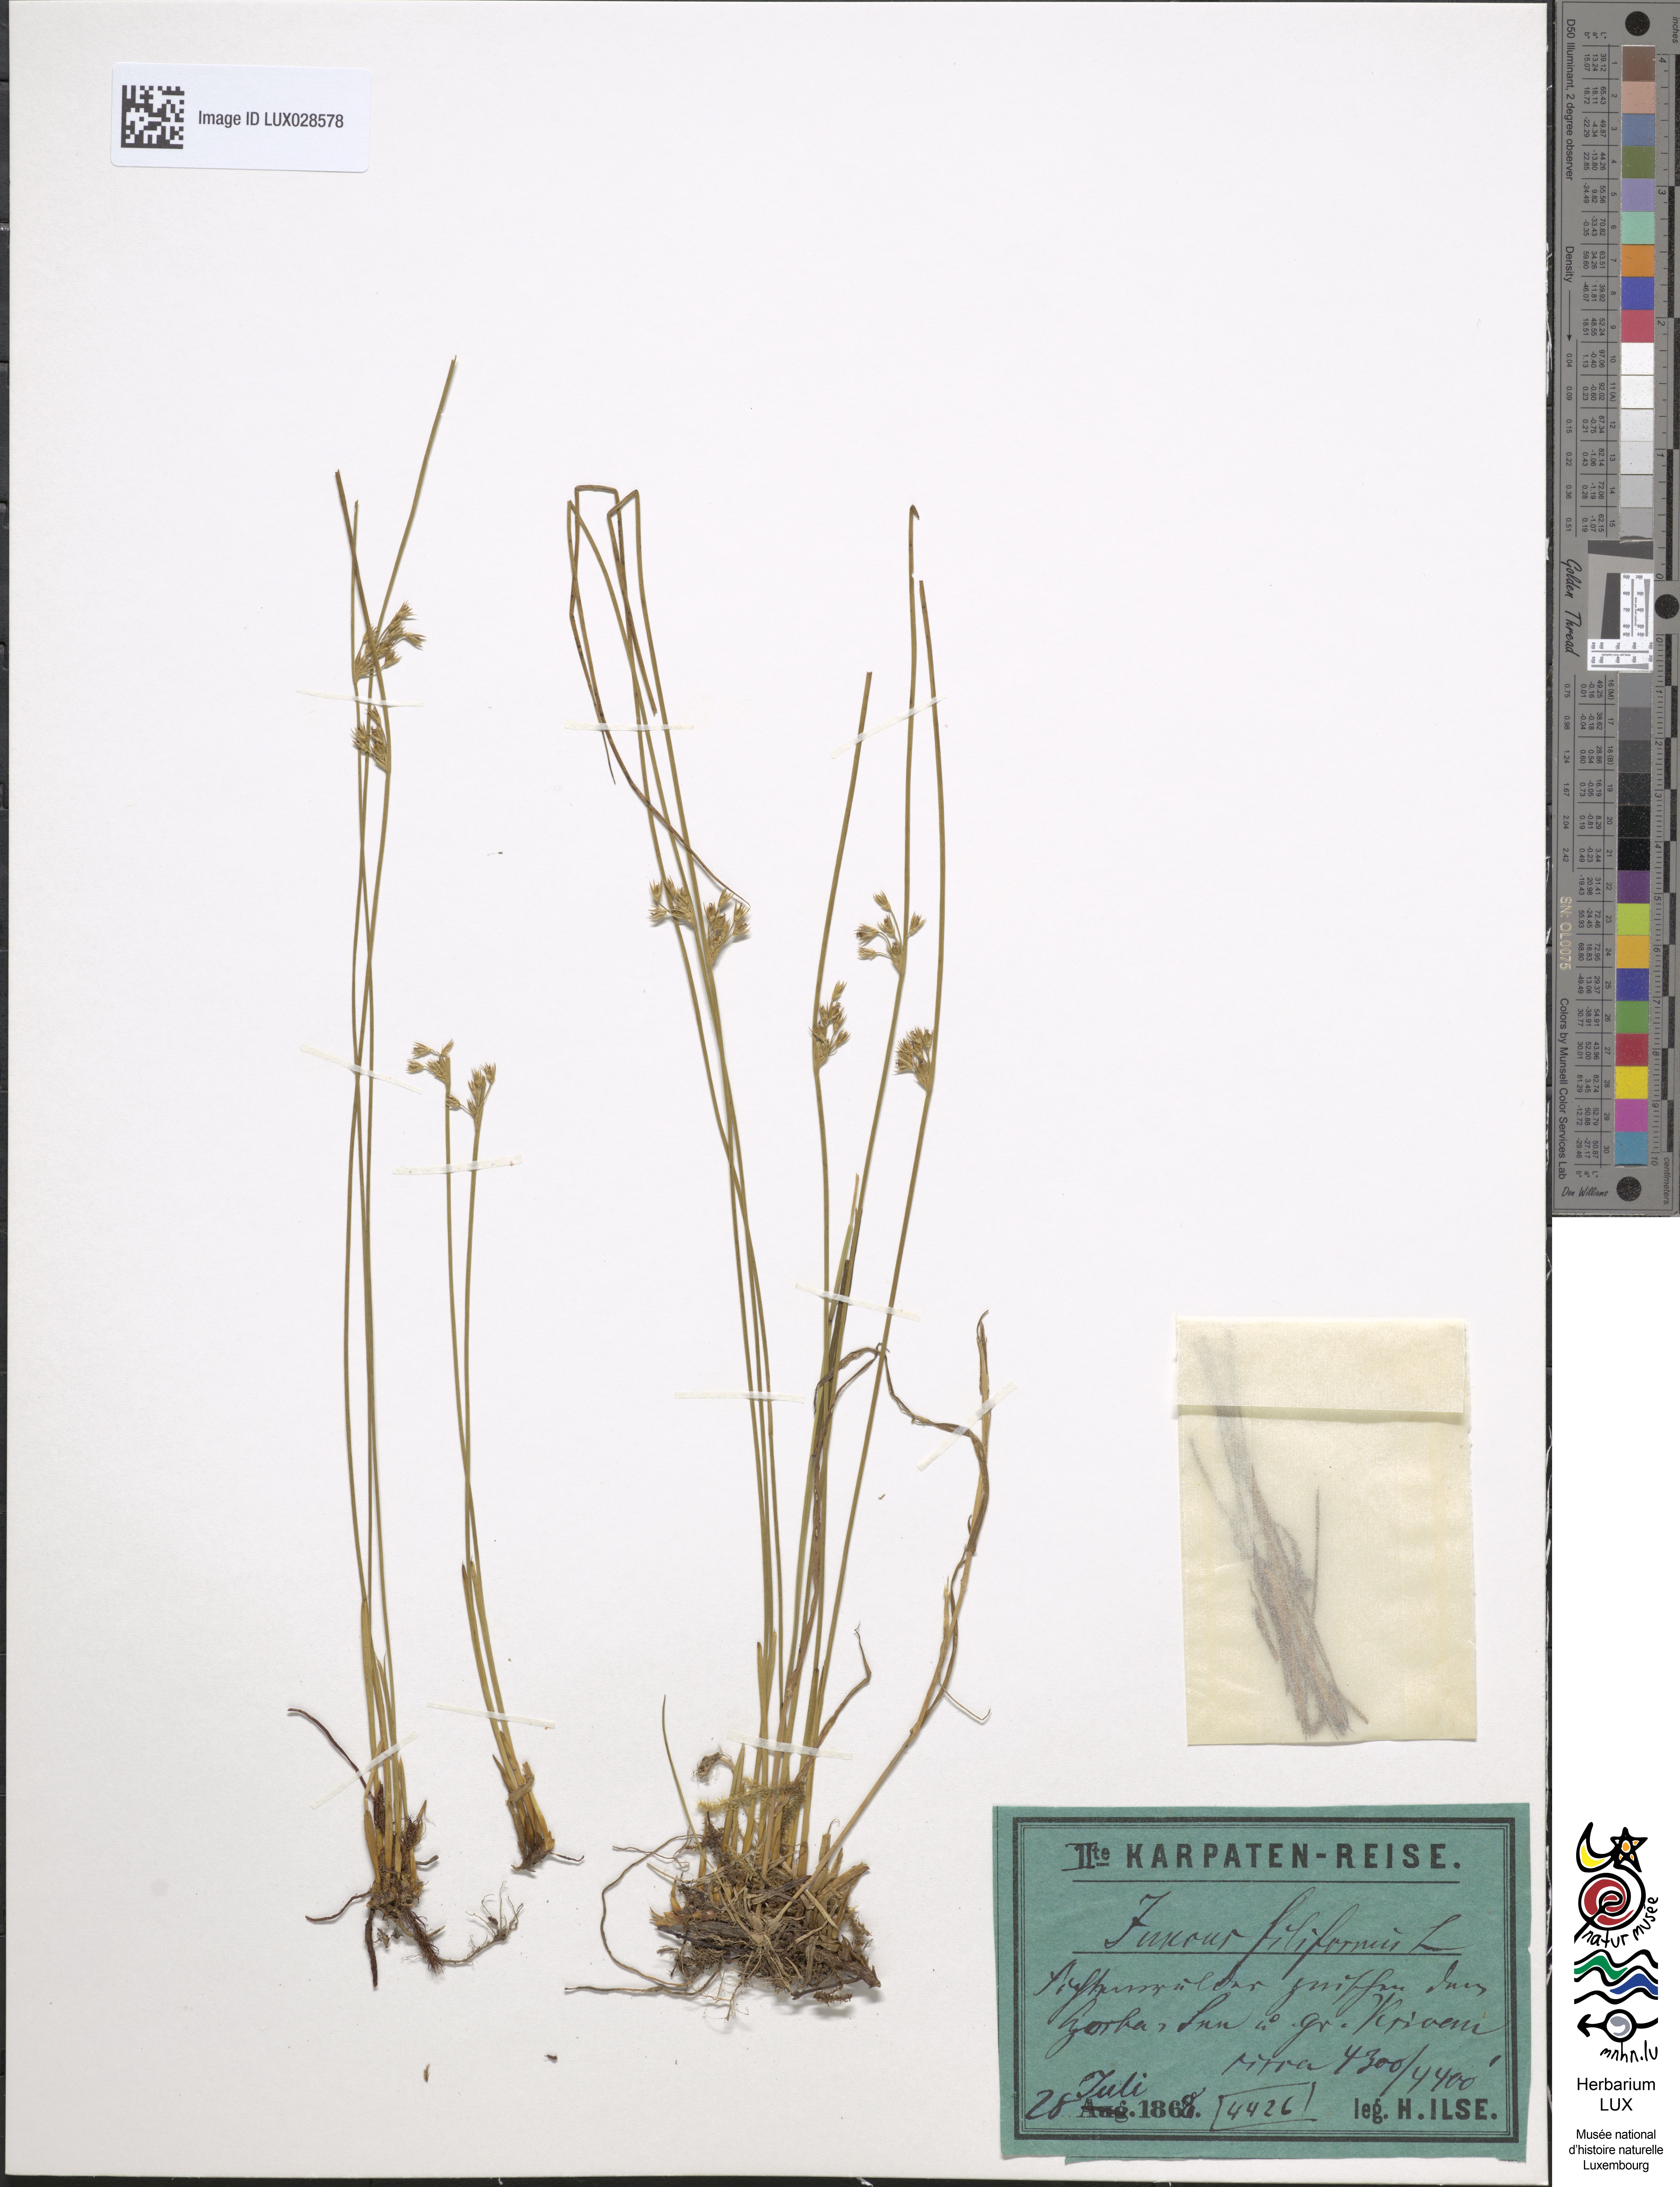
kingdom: Plantae
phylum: Tracheophyta
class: Liliopsida
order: Poales
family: Juncaceae
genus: Juncus
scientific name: Juncus filiformis
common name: Thread rush
